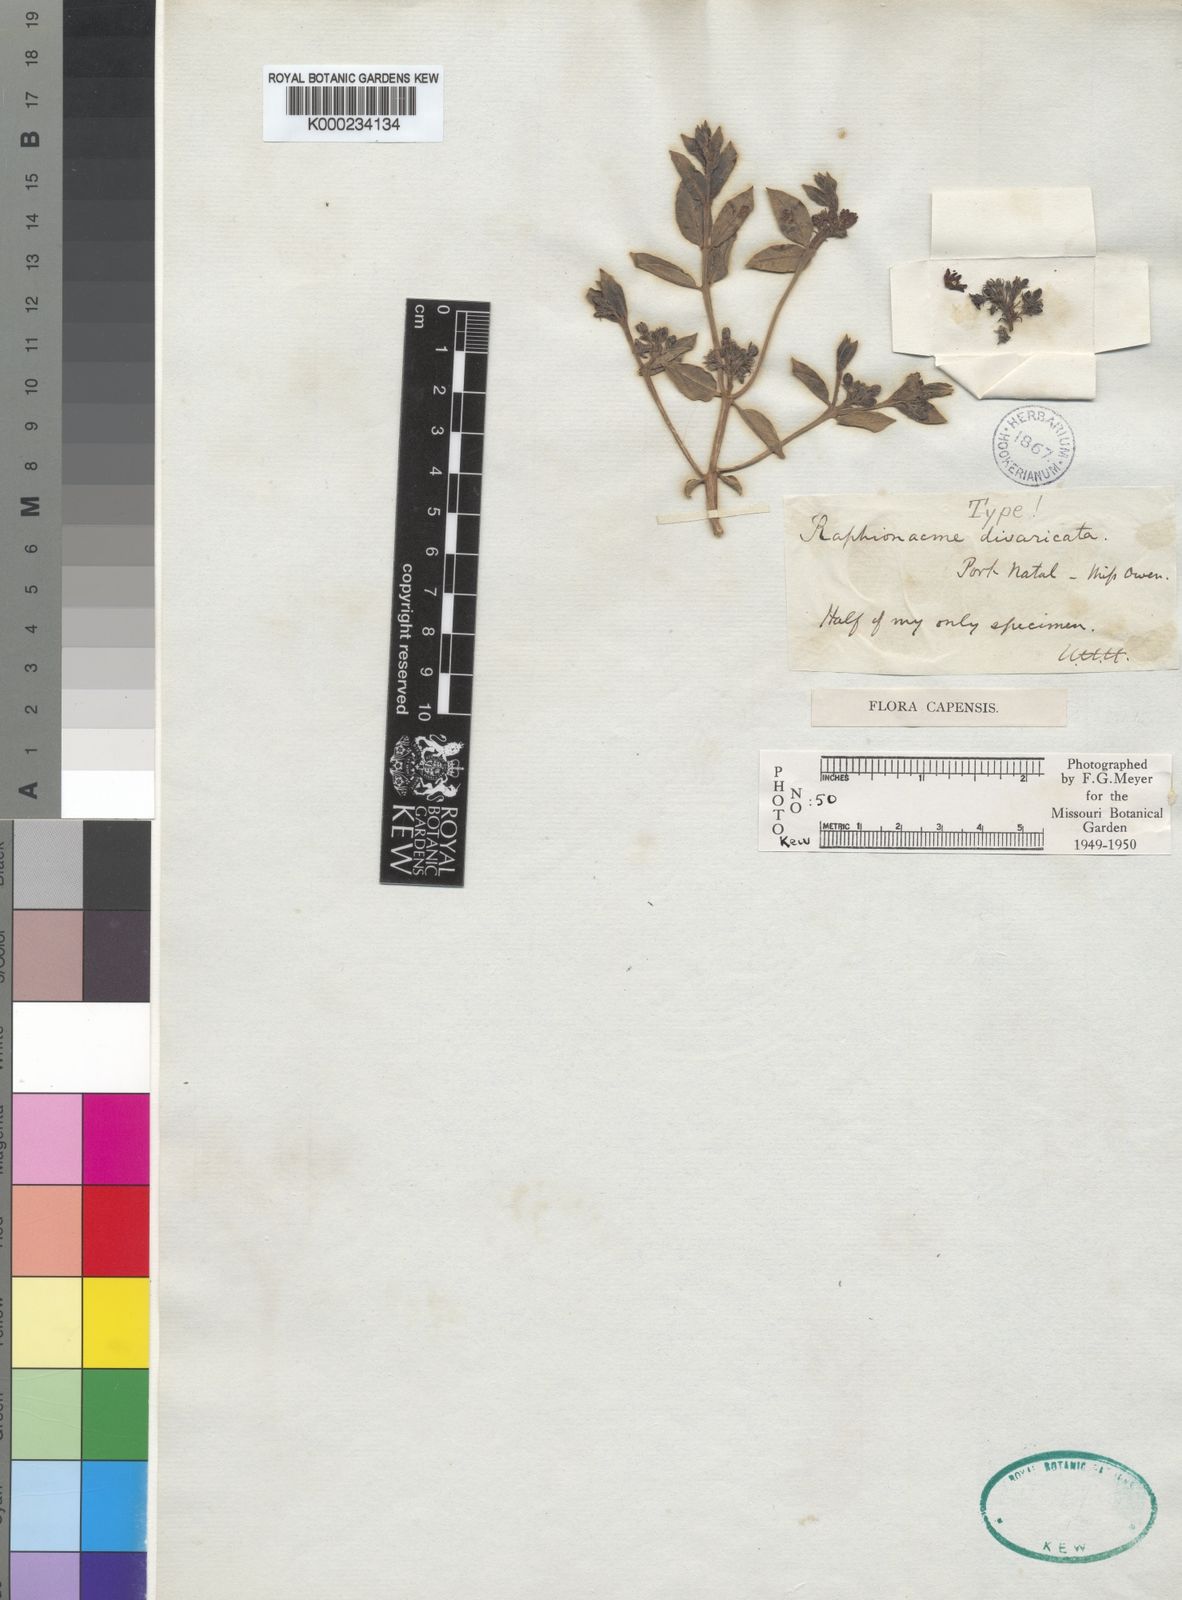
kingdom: Plantae
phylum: Tracheophyta
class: Magnoliopsida
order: Gentianales
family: Apocynaceae
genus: Raphionacme
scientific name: Raphionacme hirsuta
